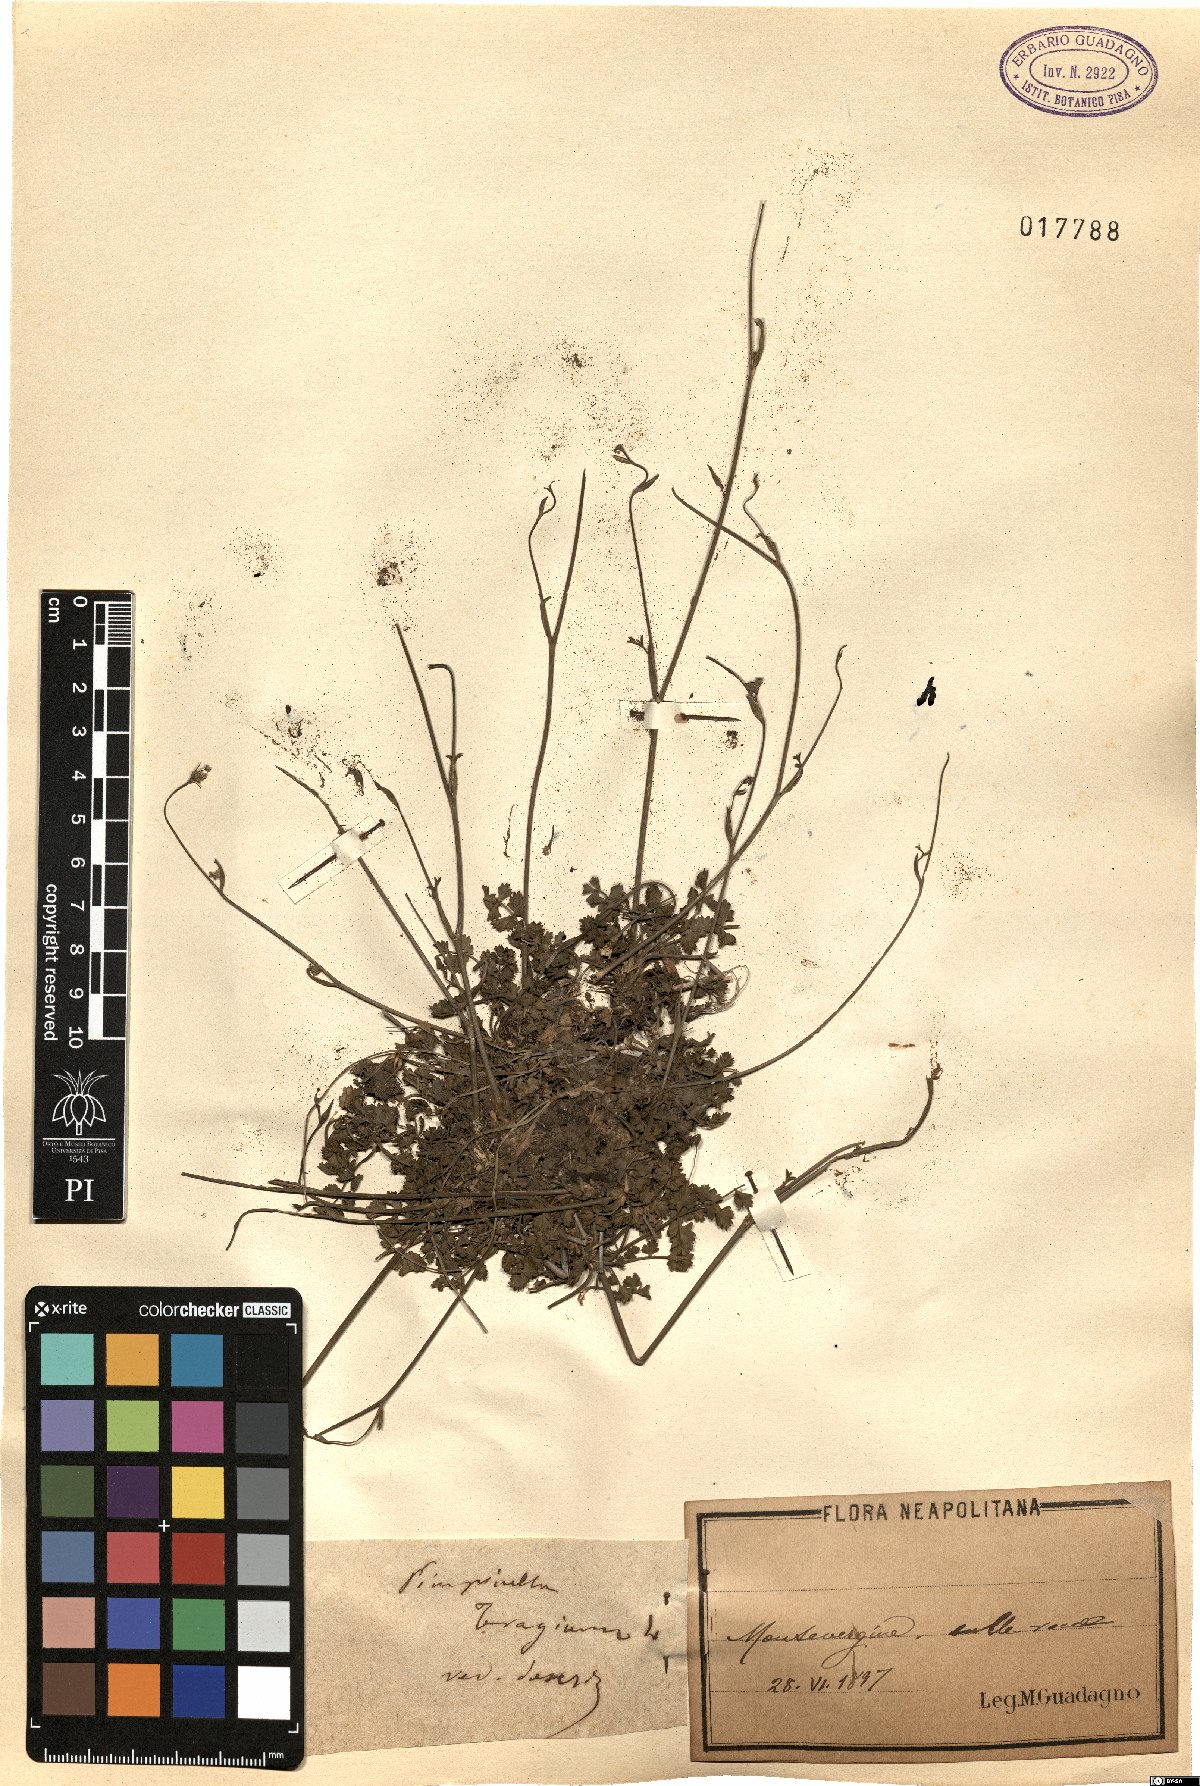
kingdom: Plantae
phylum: Tracheophyta
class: Magnoliopsida
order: Apiales
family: Apiaceae
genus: Pimpinella
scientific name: Pimpinella tragium
